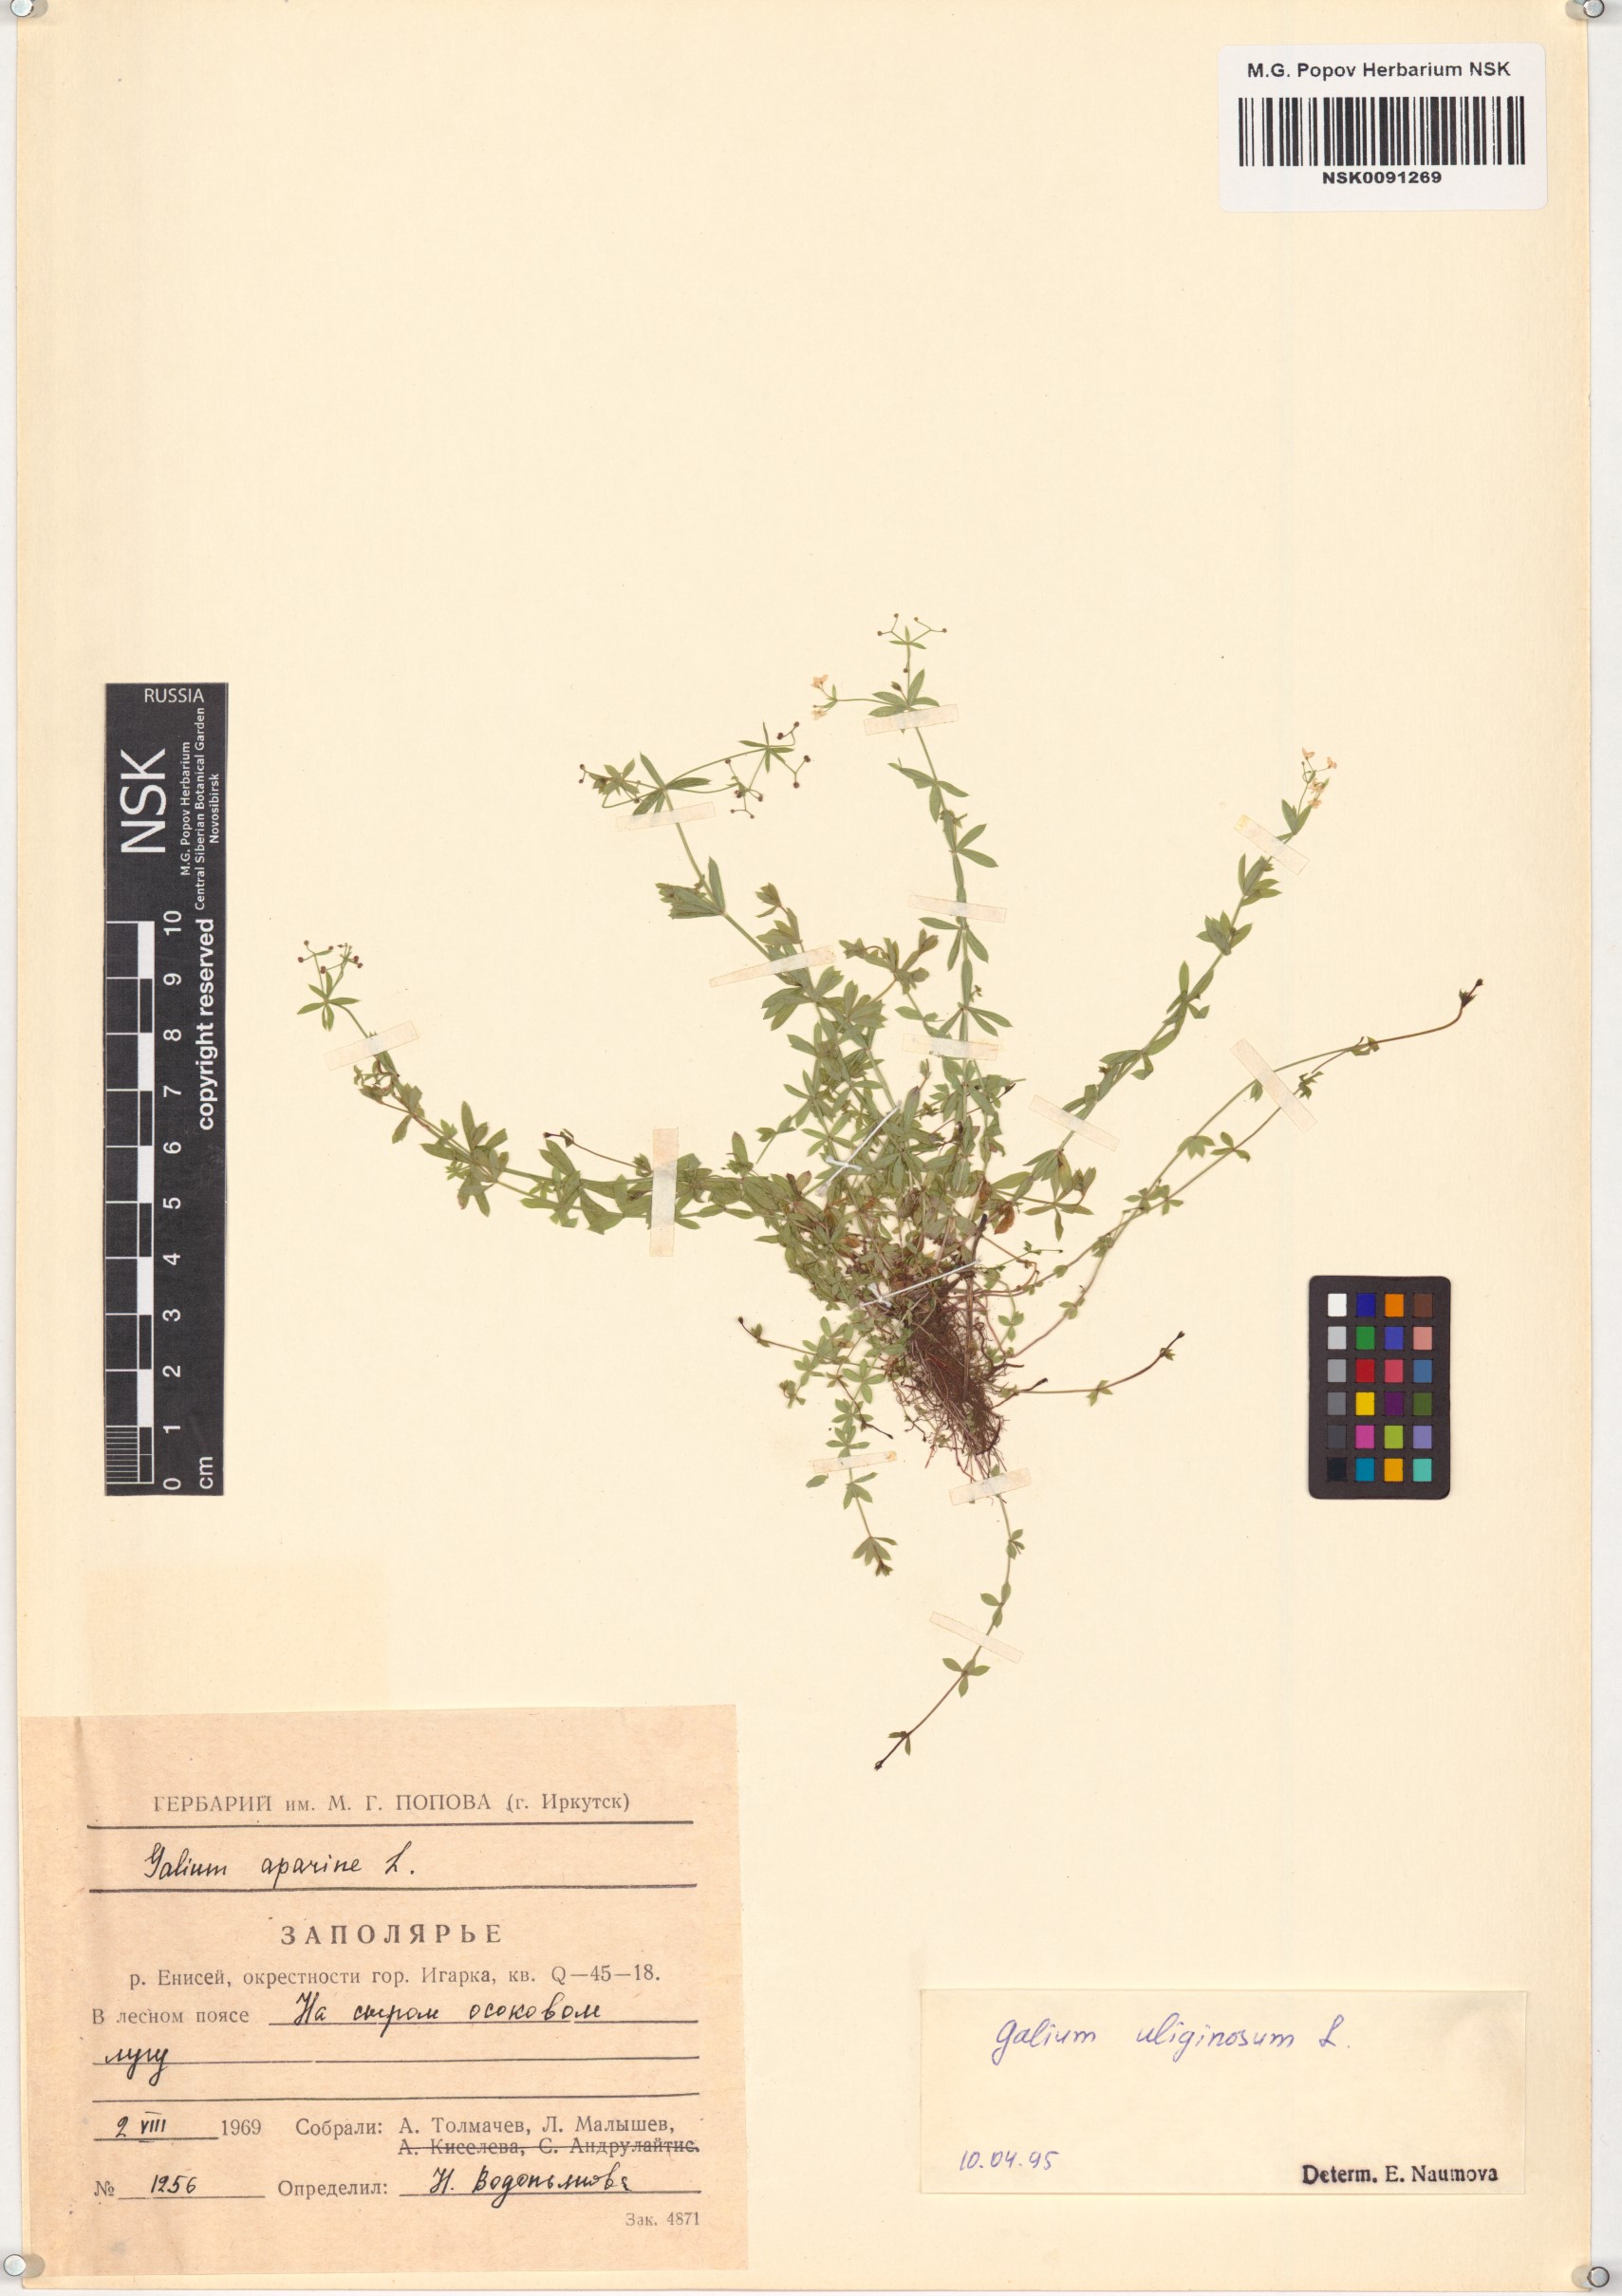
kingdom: Plantae
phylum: Tracheophyta
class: Magnoliopsida
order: Gentianales
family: Rubiaceae
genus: Galium
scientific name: Galium uliginosum
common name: Fen bedstraw
